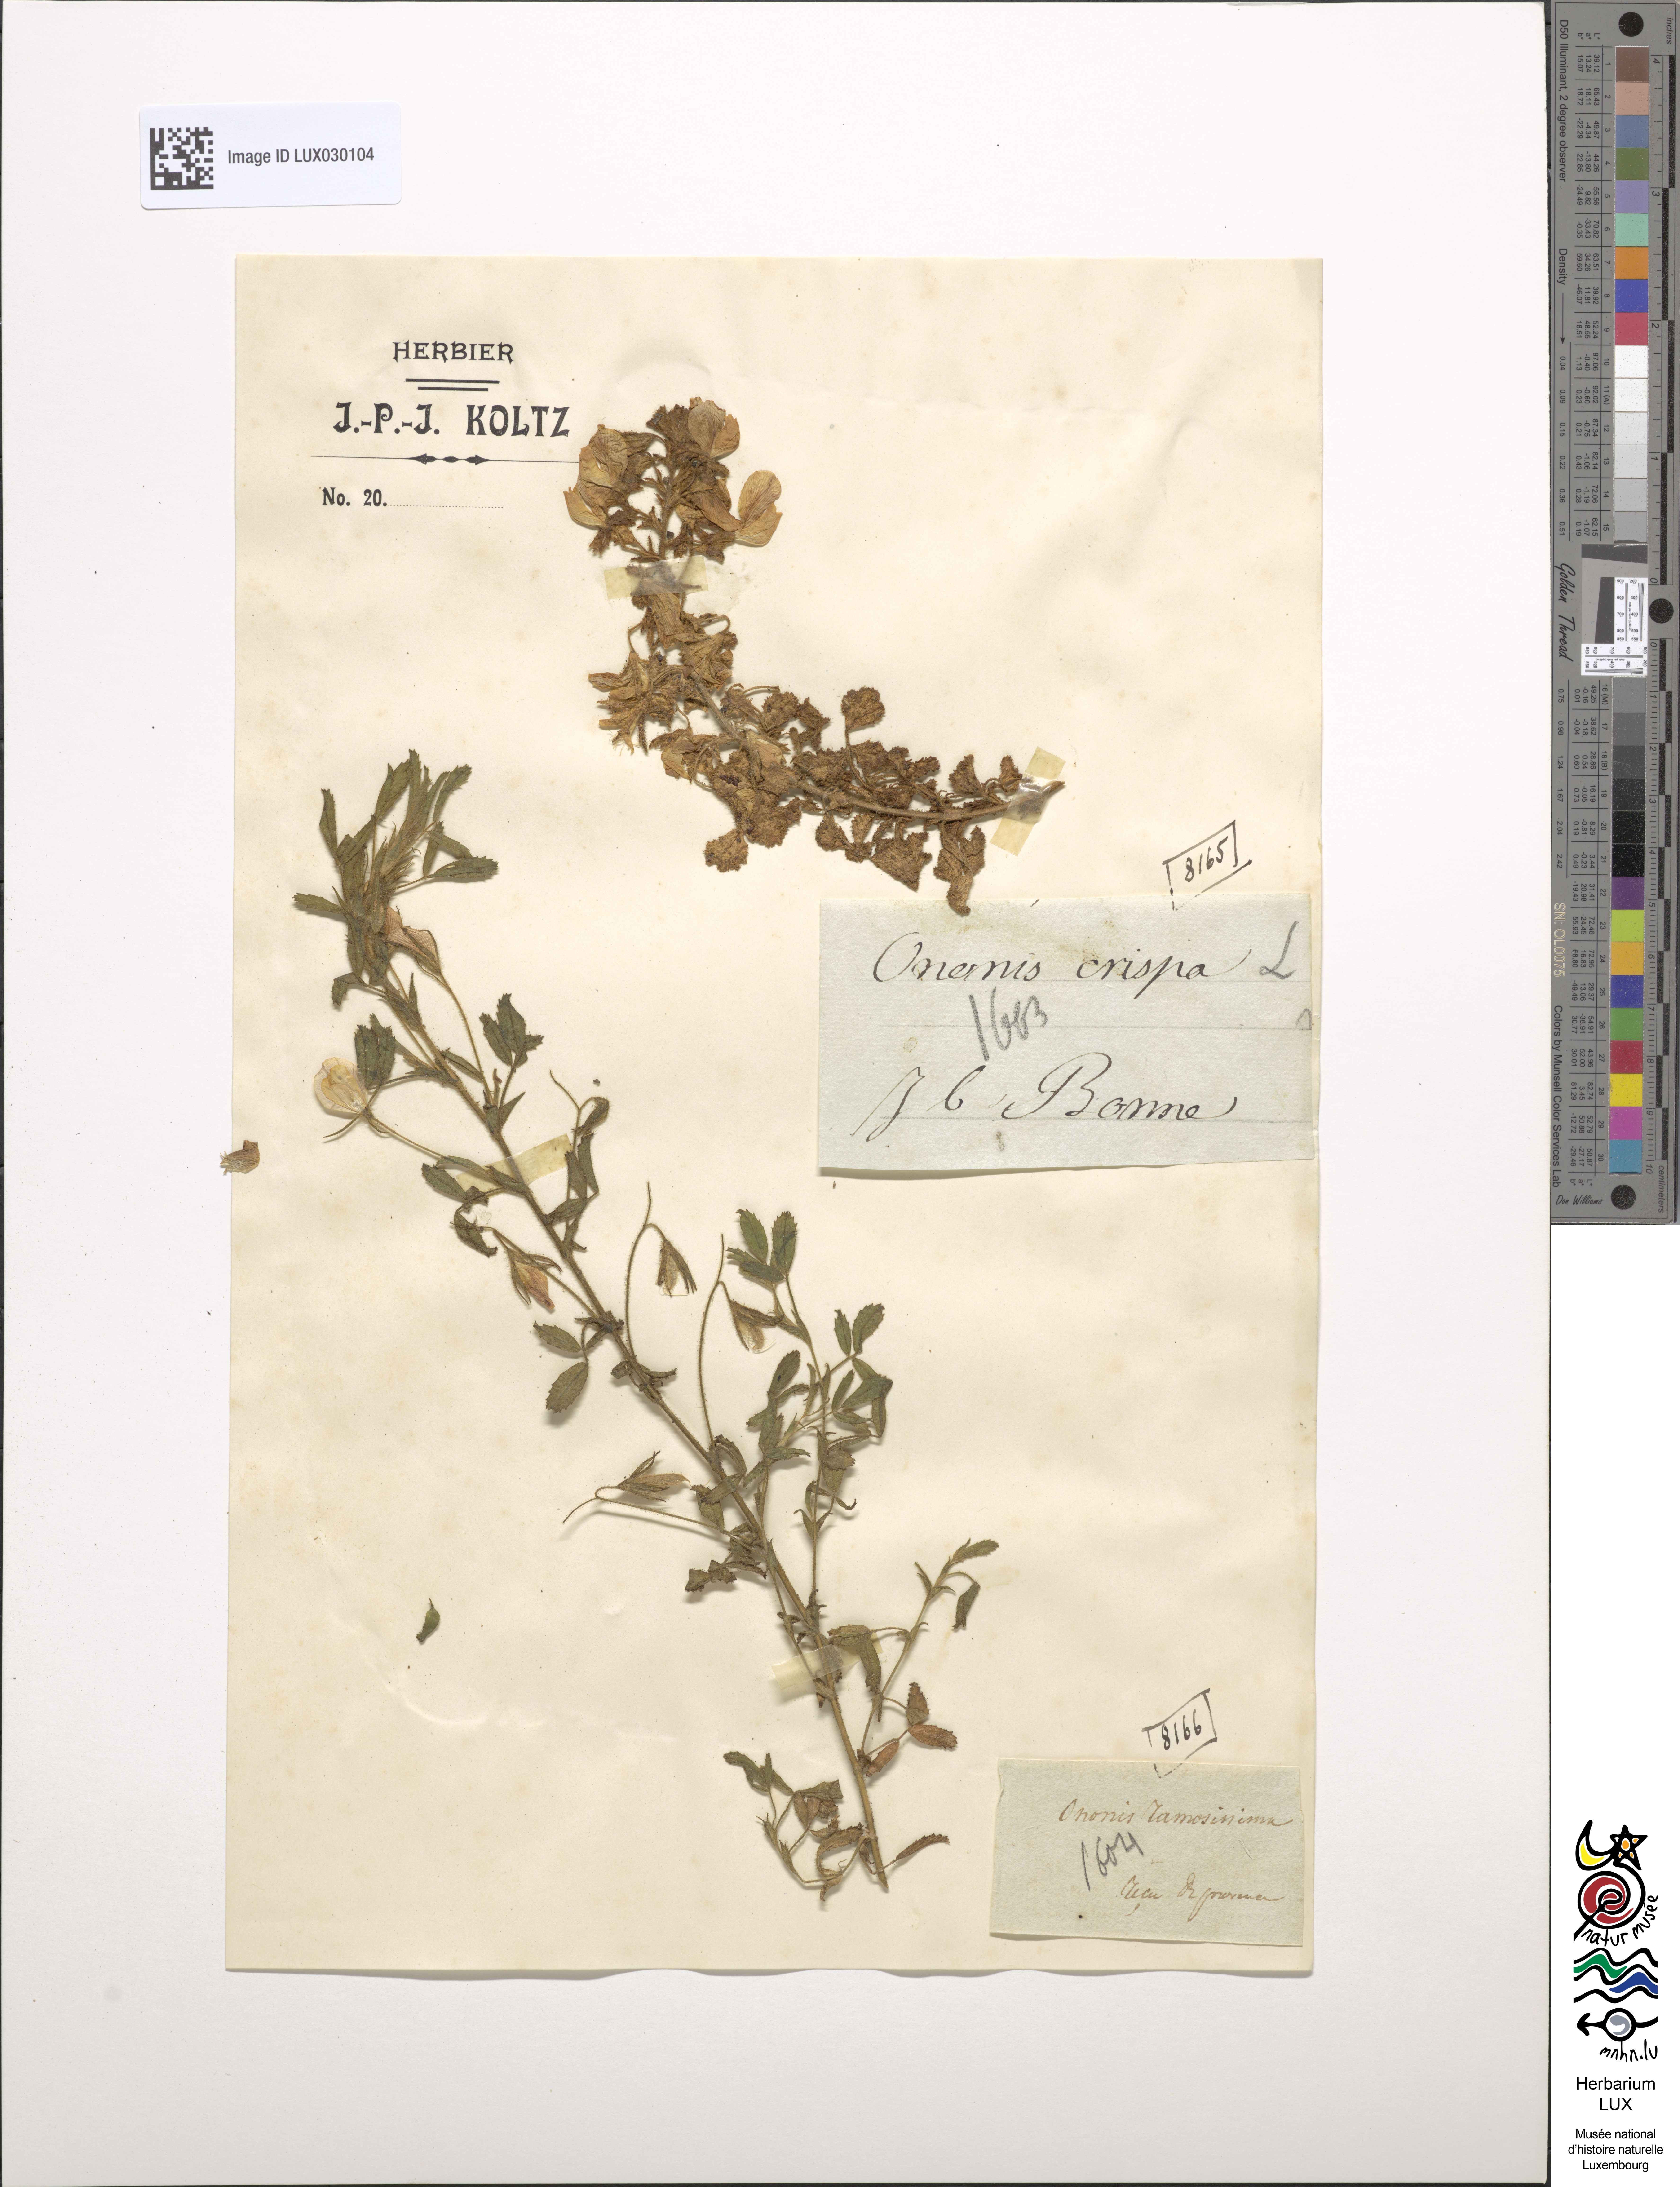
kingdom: Plantae
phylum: Tracheophyta
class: Magnoliopsida
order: Fabales
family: Fabaceae
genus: Ononis
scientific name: Ononis ramosissima
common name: Bush restharrow
